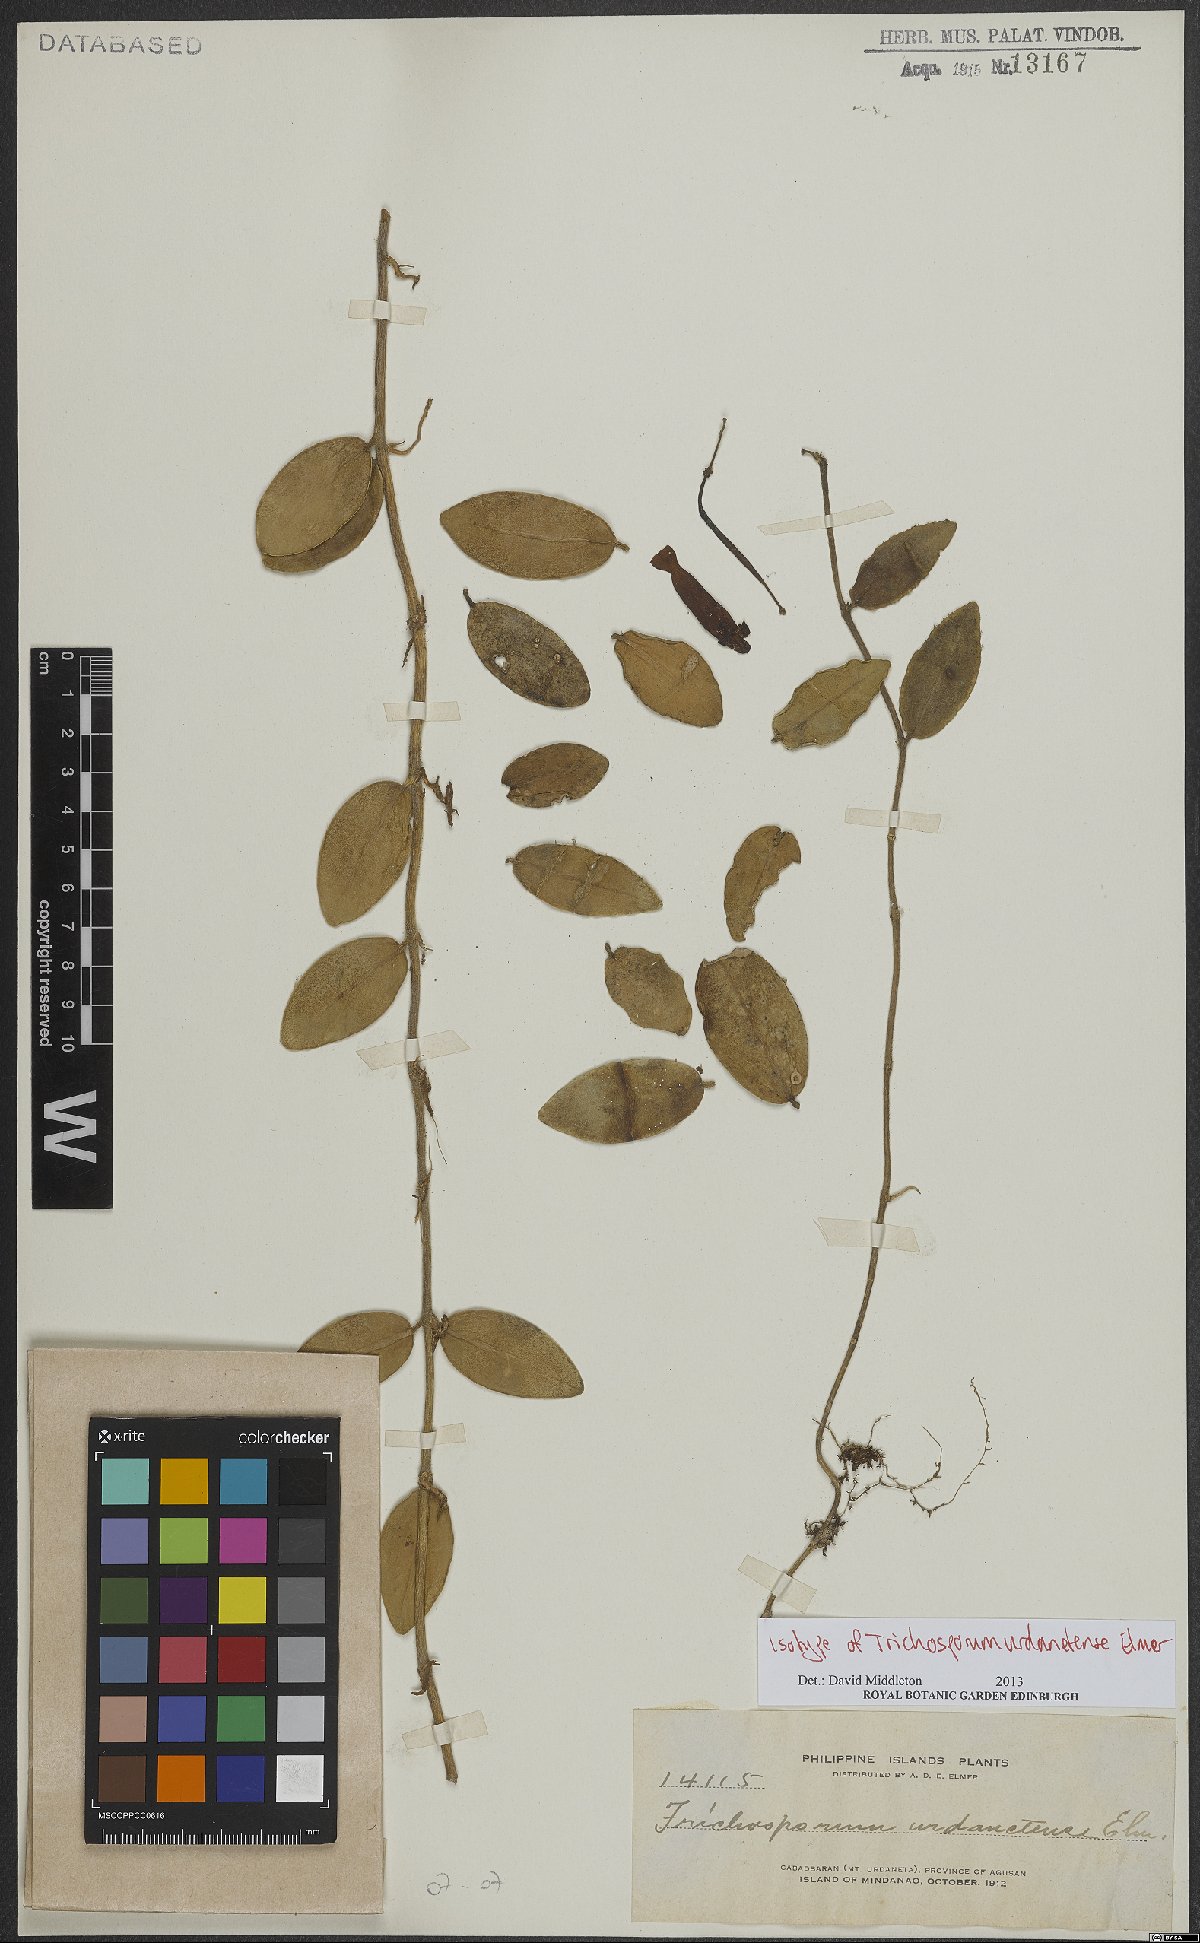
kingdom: Plantae
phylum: Tracheophyta
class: Magnoliopsida
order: Lamiales
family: Gesneriaceae
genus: Aeschynanthus
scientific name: Aeschynanthus urdanetensis
